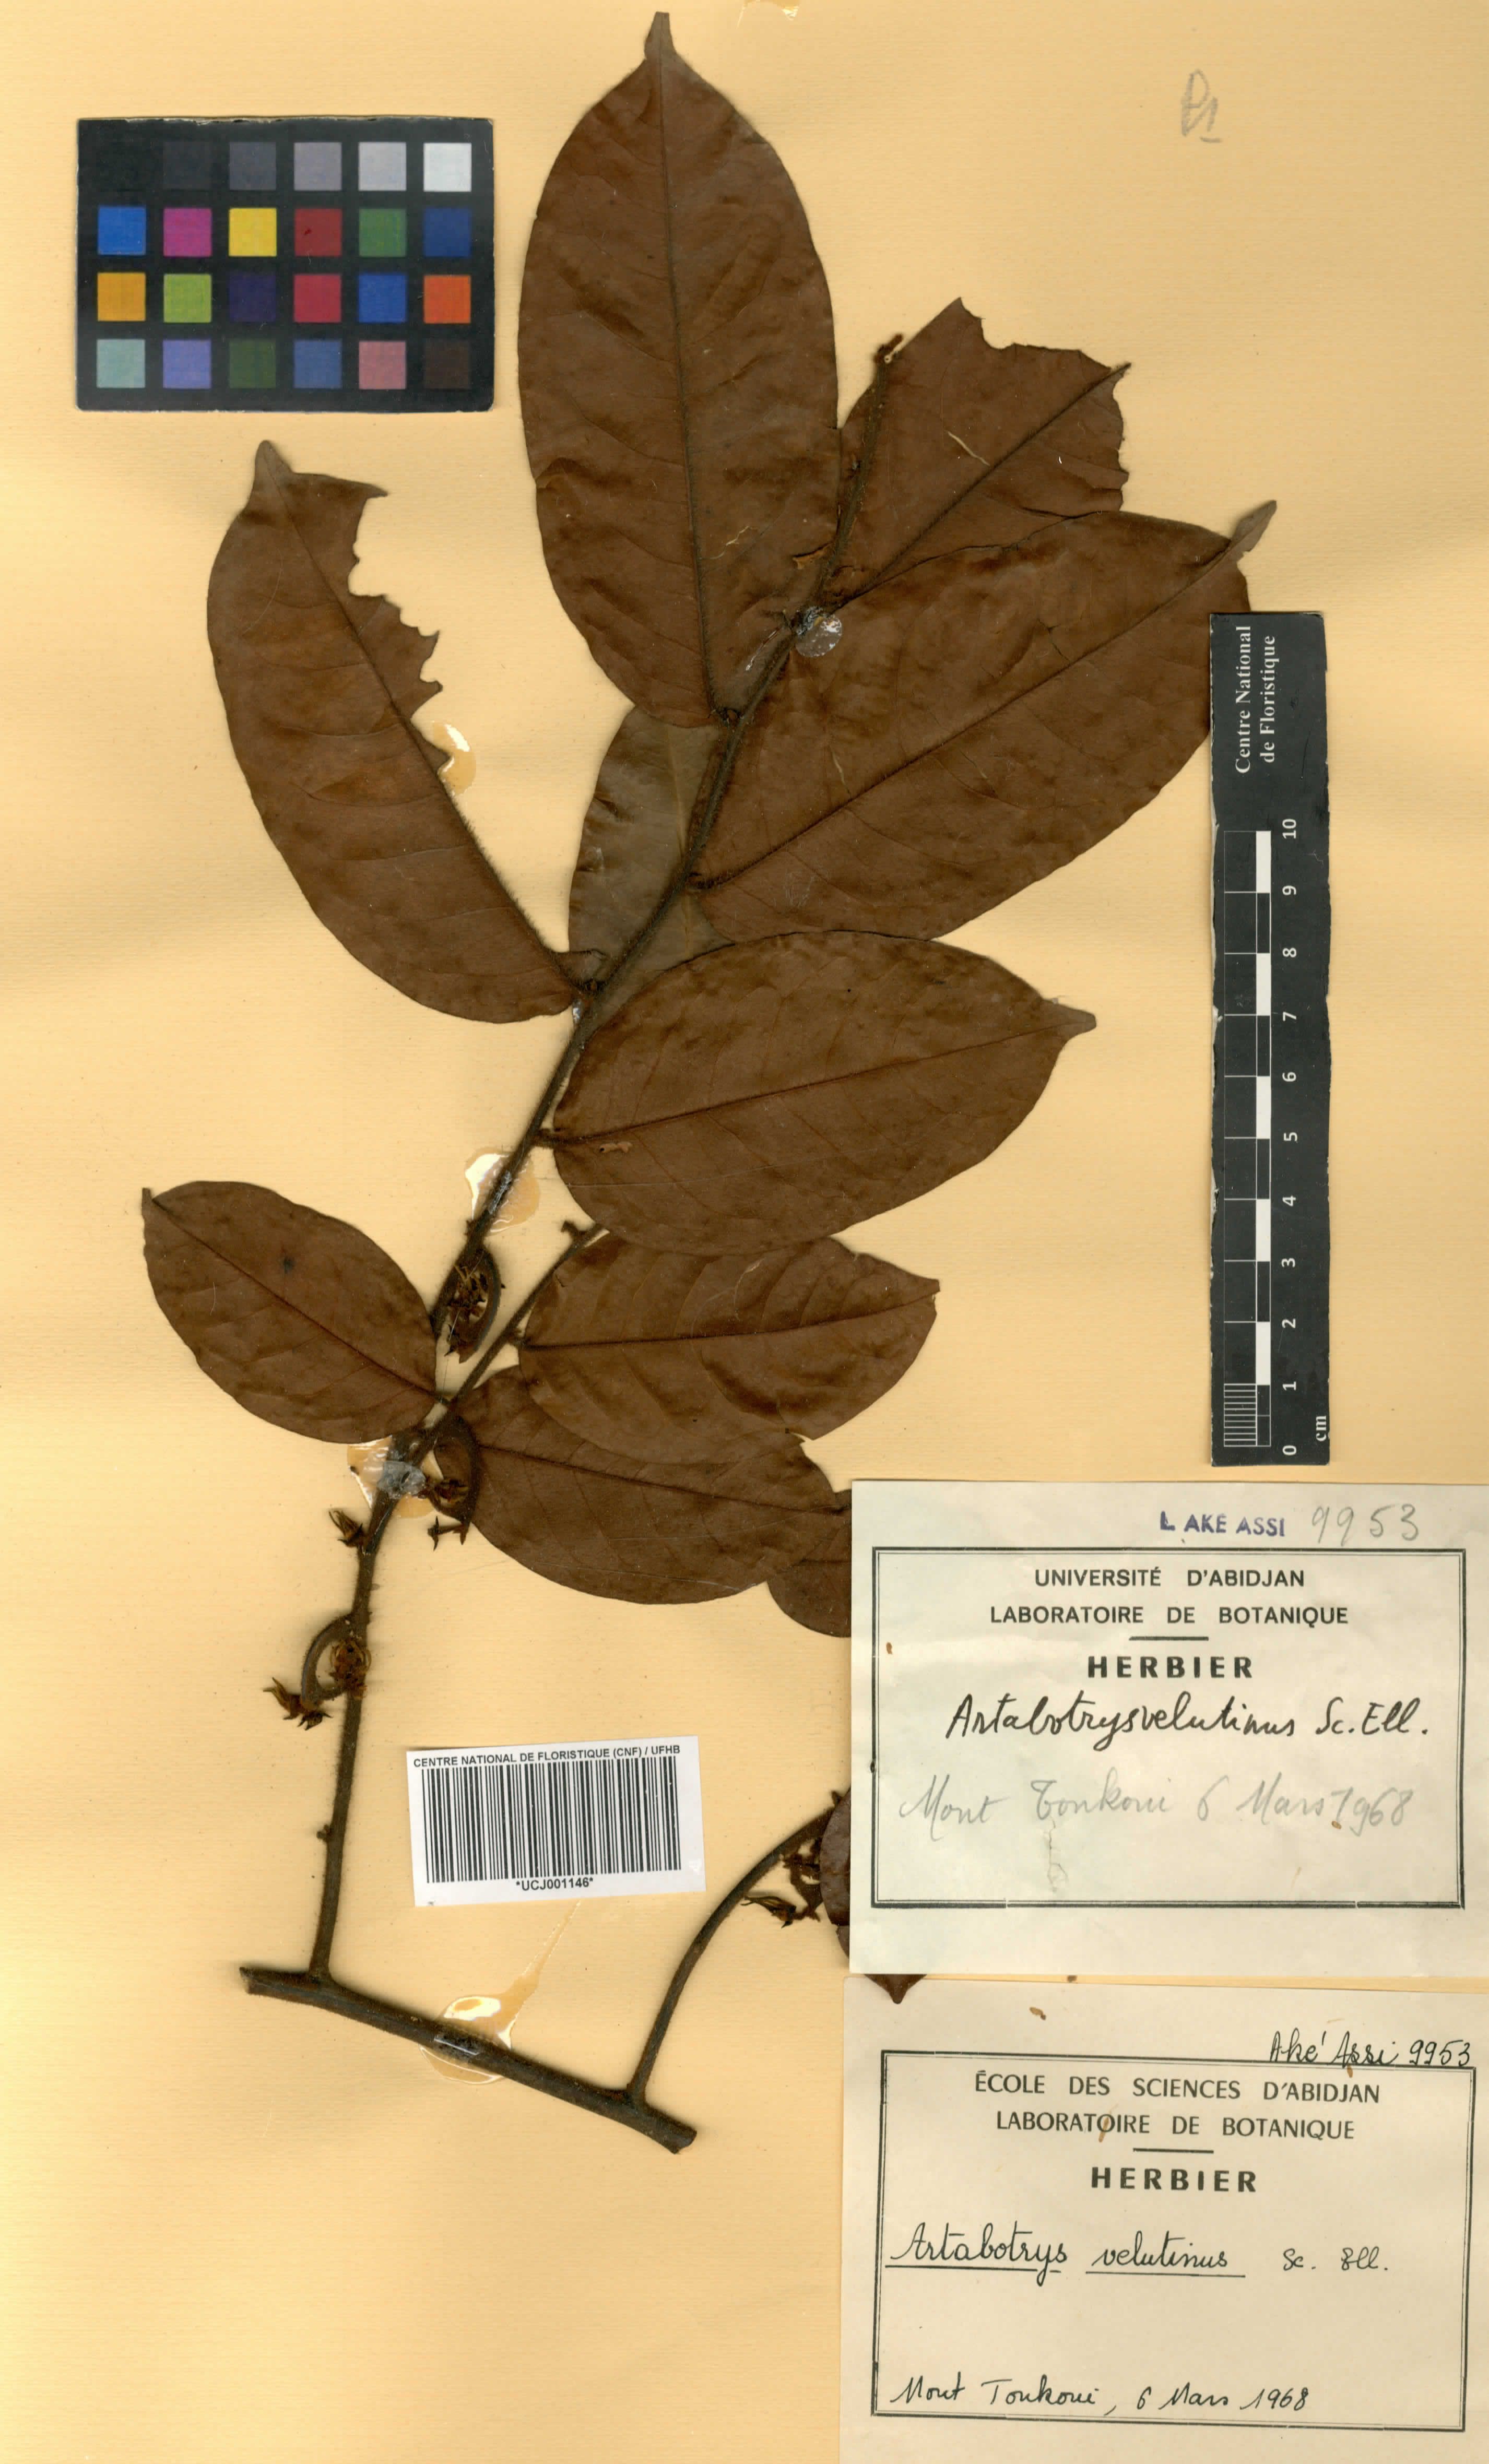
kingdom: Plantae
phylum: Tracheophyta
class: Magnoliopsida
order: Magnoliales
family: Annonaceae
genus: Artabotrys
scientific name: Artabotrys velutinus
